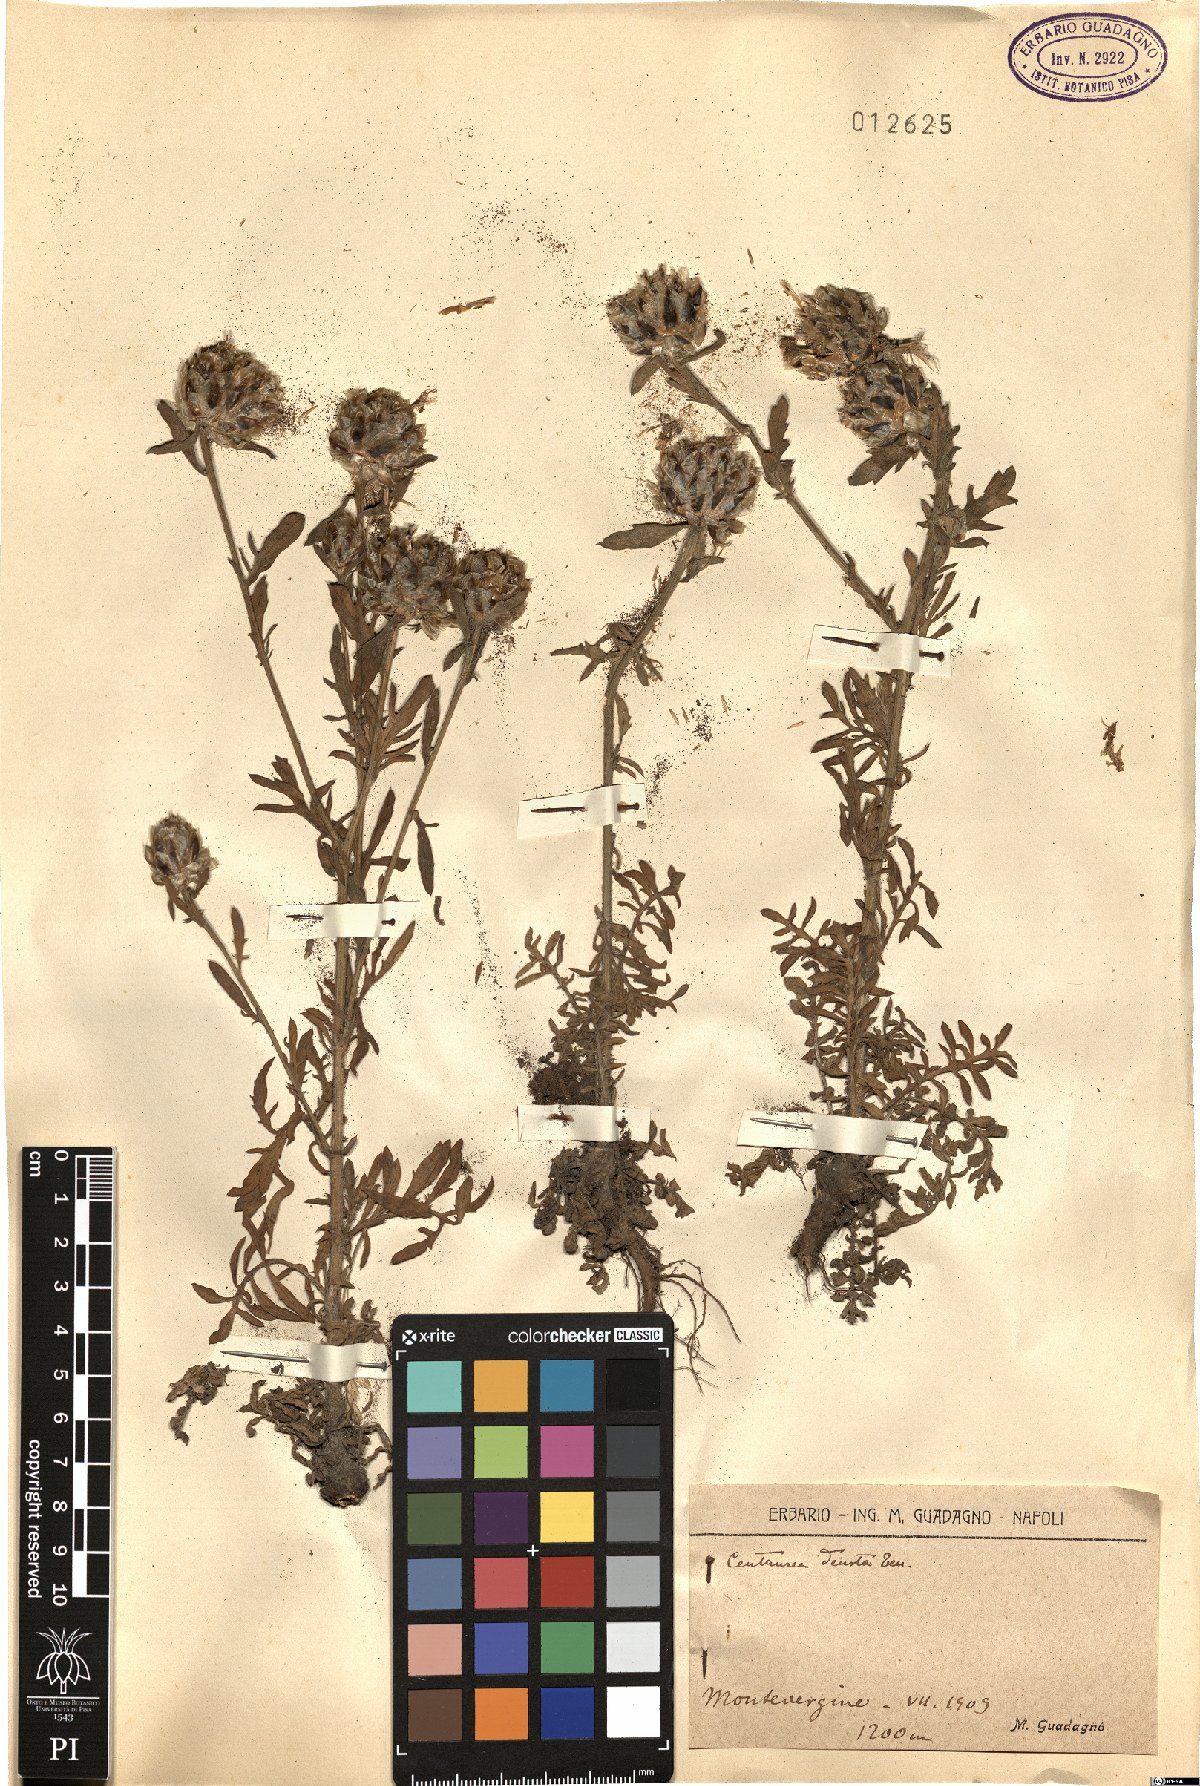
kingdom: Plantae
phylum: Tracheophyta
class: Magnoliopsida
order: Asterales
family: Asteraceae
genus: Centaurea
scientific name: Centaurea deusta
